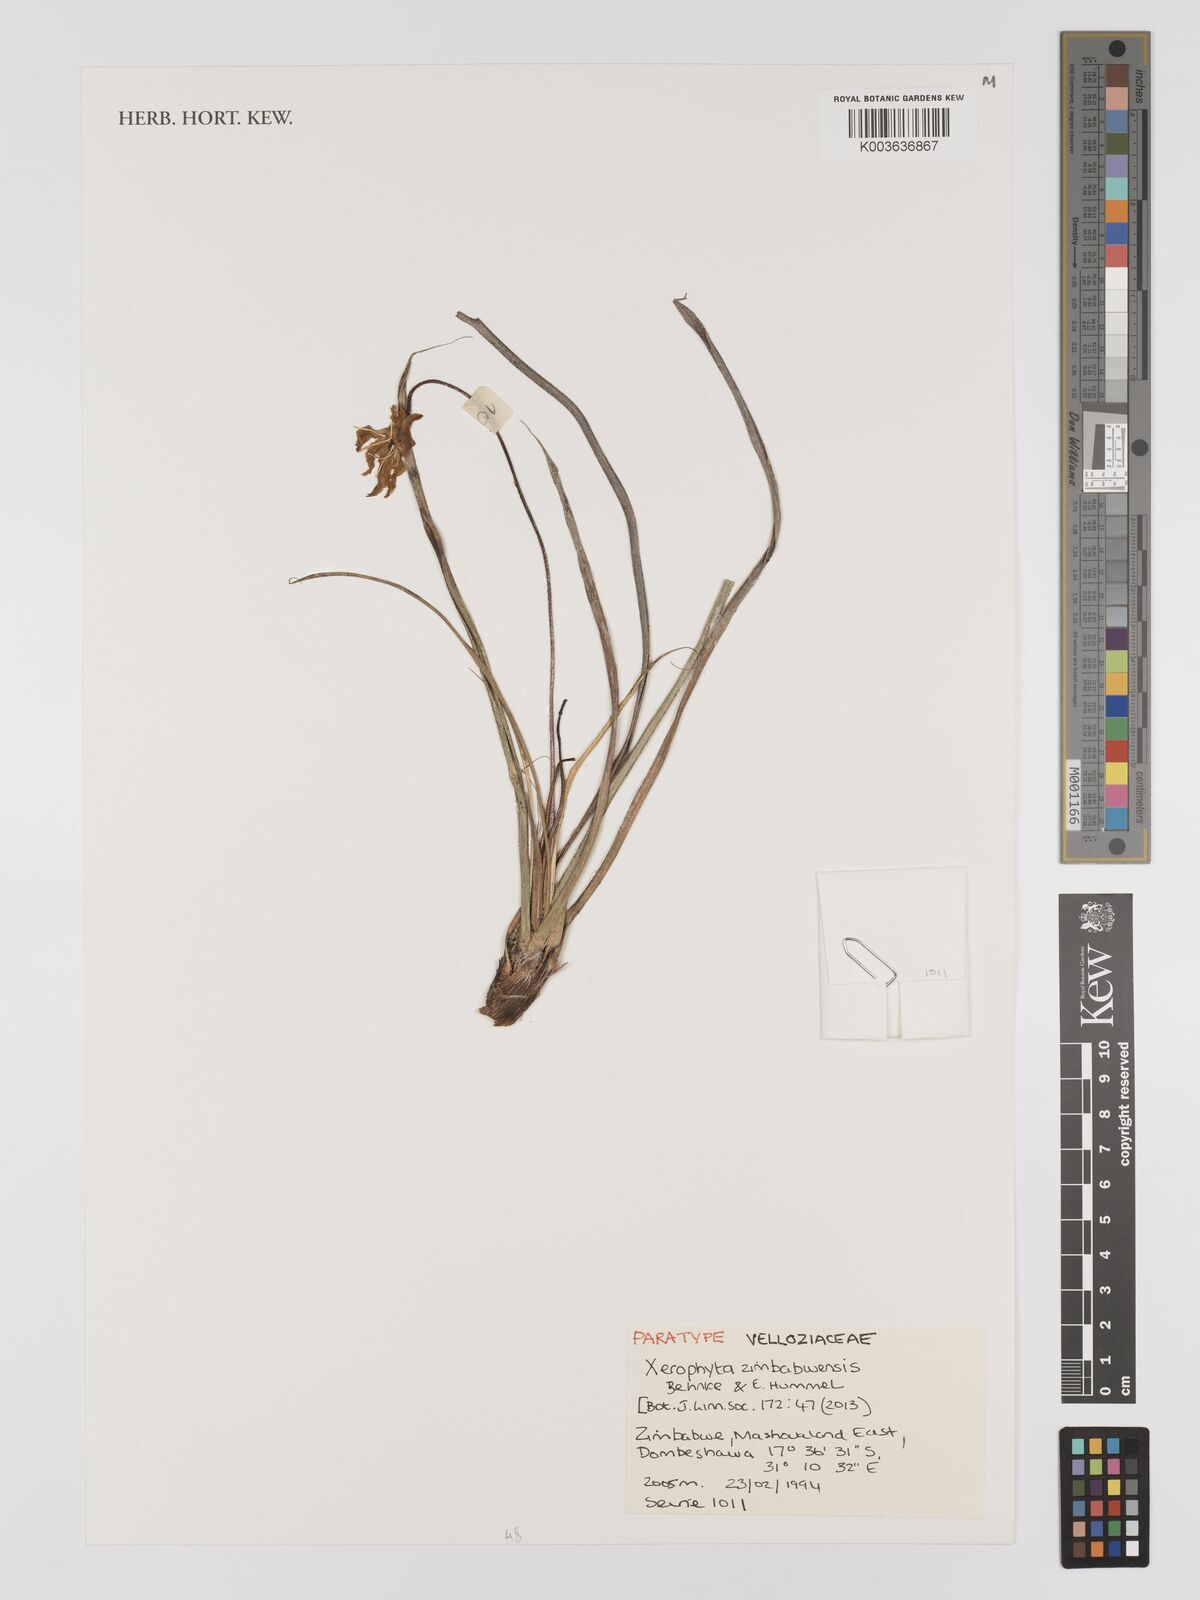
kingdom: Plantae
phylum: Tracheophyta
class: Liliopsida
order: Pandanales
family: Velloziaceae
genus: Xerophyta
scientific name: Xerophyta zimbabwensis
